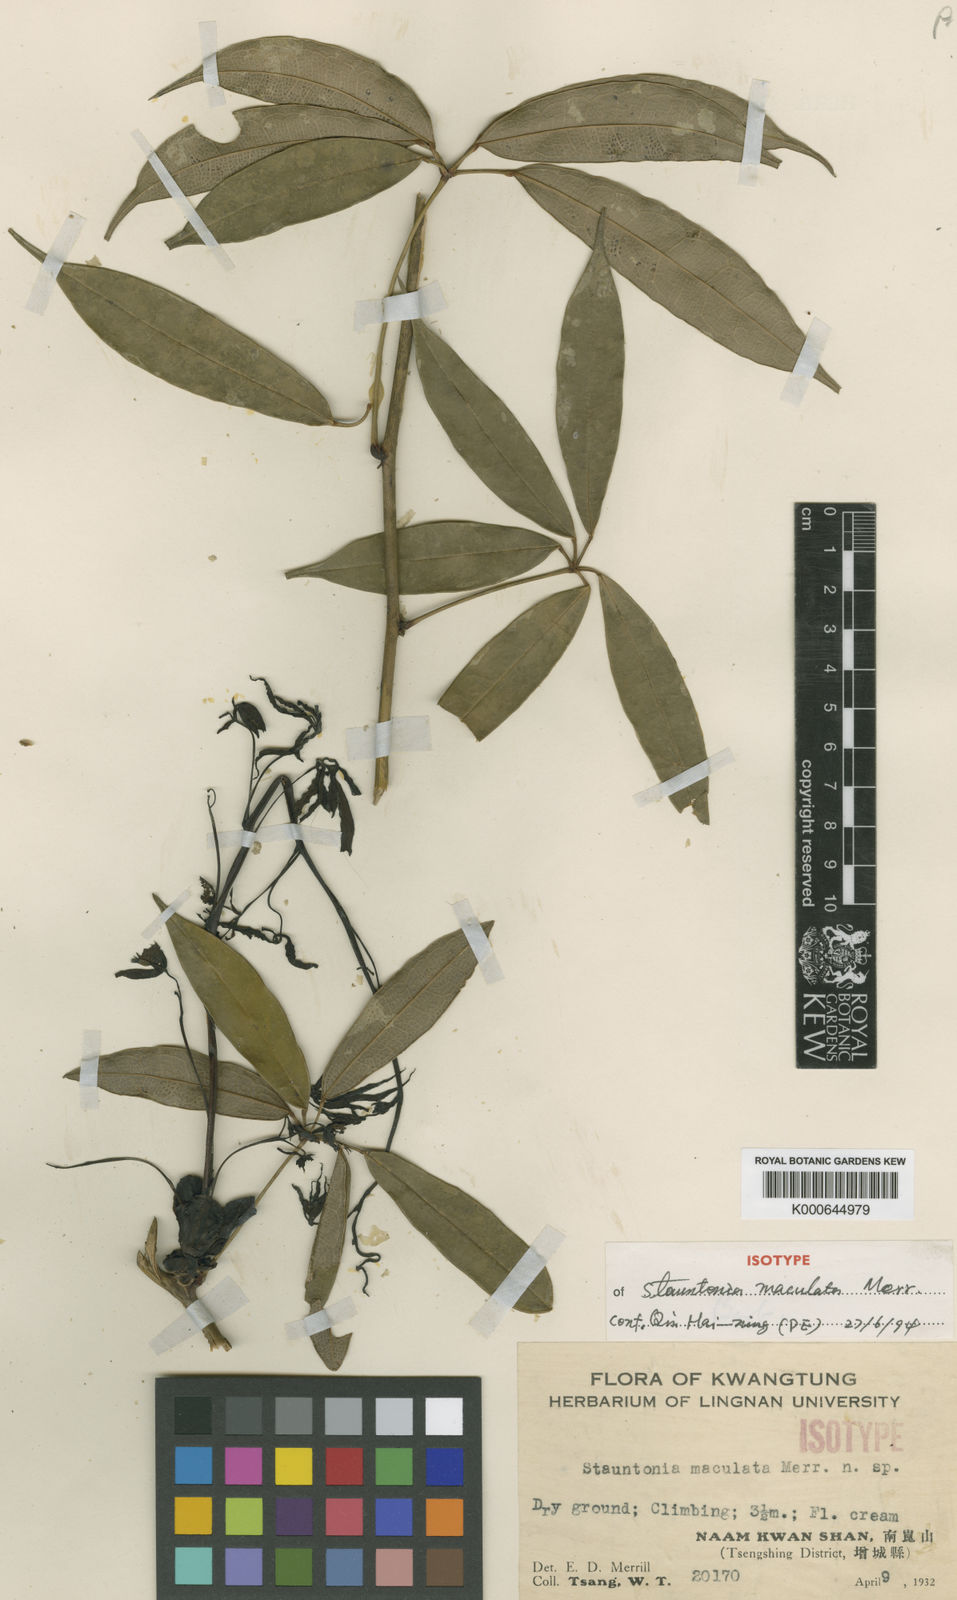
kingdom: Plantae
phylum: Tracheophyta
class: Magnoliopsida
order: Ranunculales
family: Lardizabalaceae
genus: Stauntonia
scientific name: Stauntonia maculata
